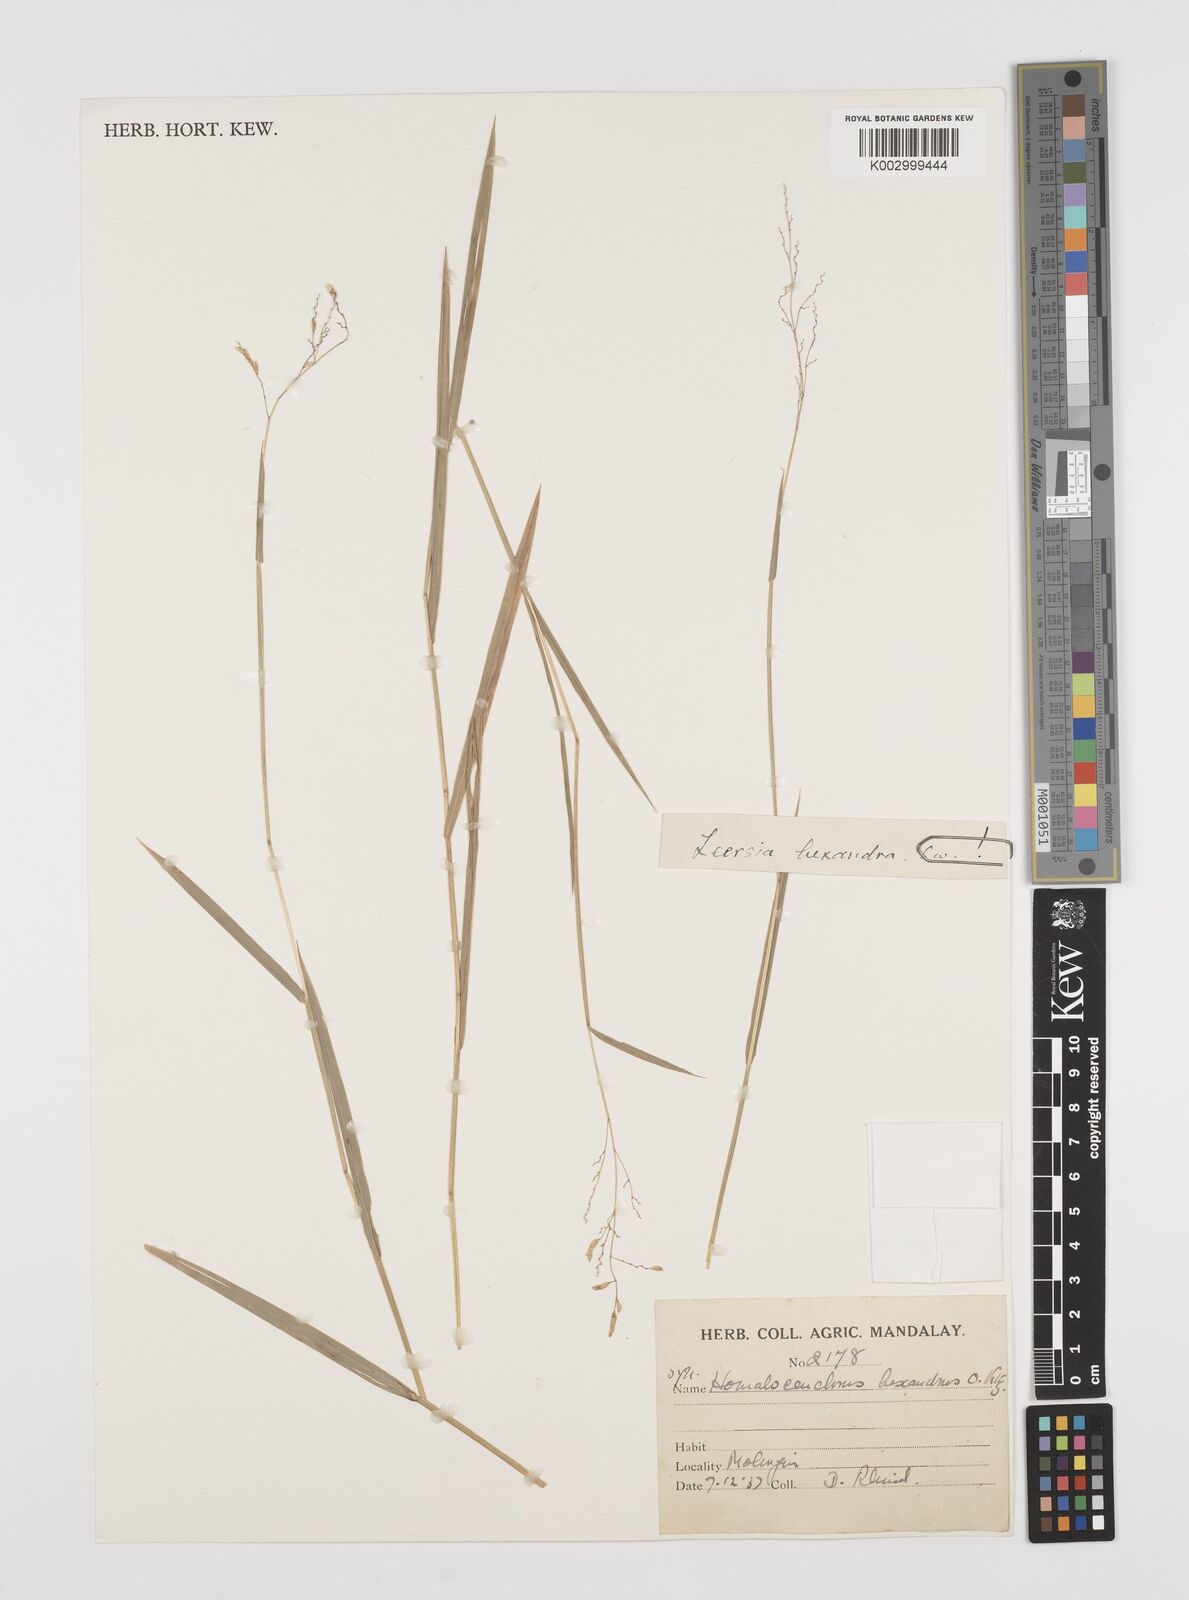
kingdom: Plantae
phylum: Tracheophyta
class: Liliopsida
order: Poales
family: Poaceae
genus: Leersia
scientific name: Leersia hexandra
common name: Southern cut grass
